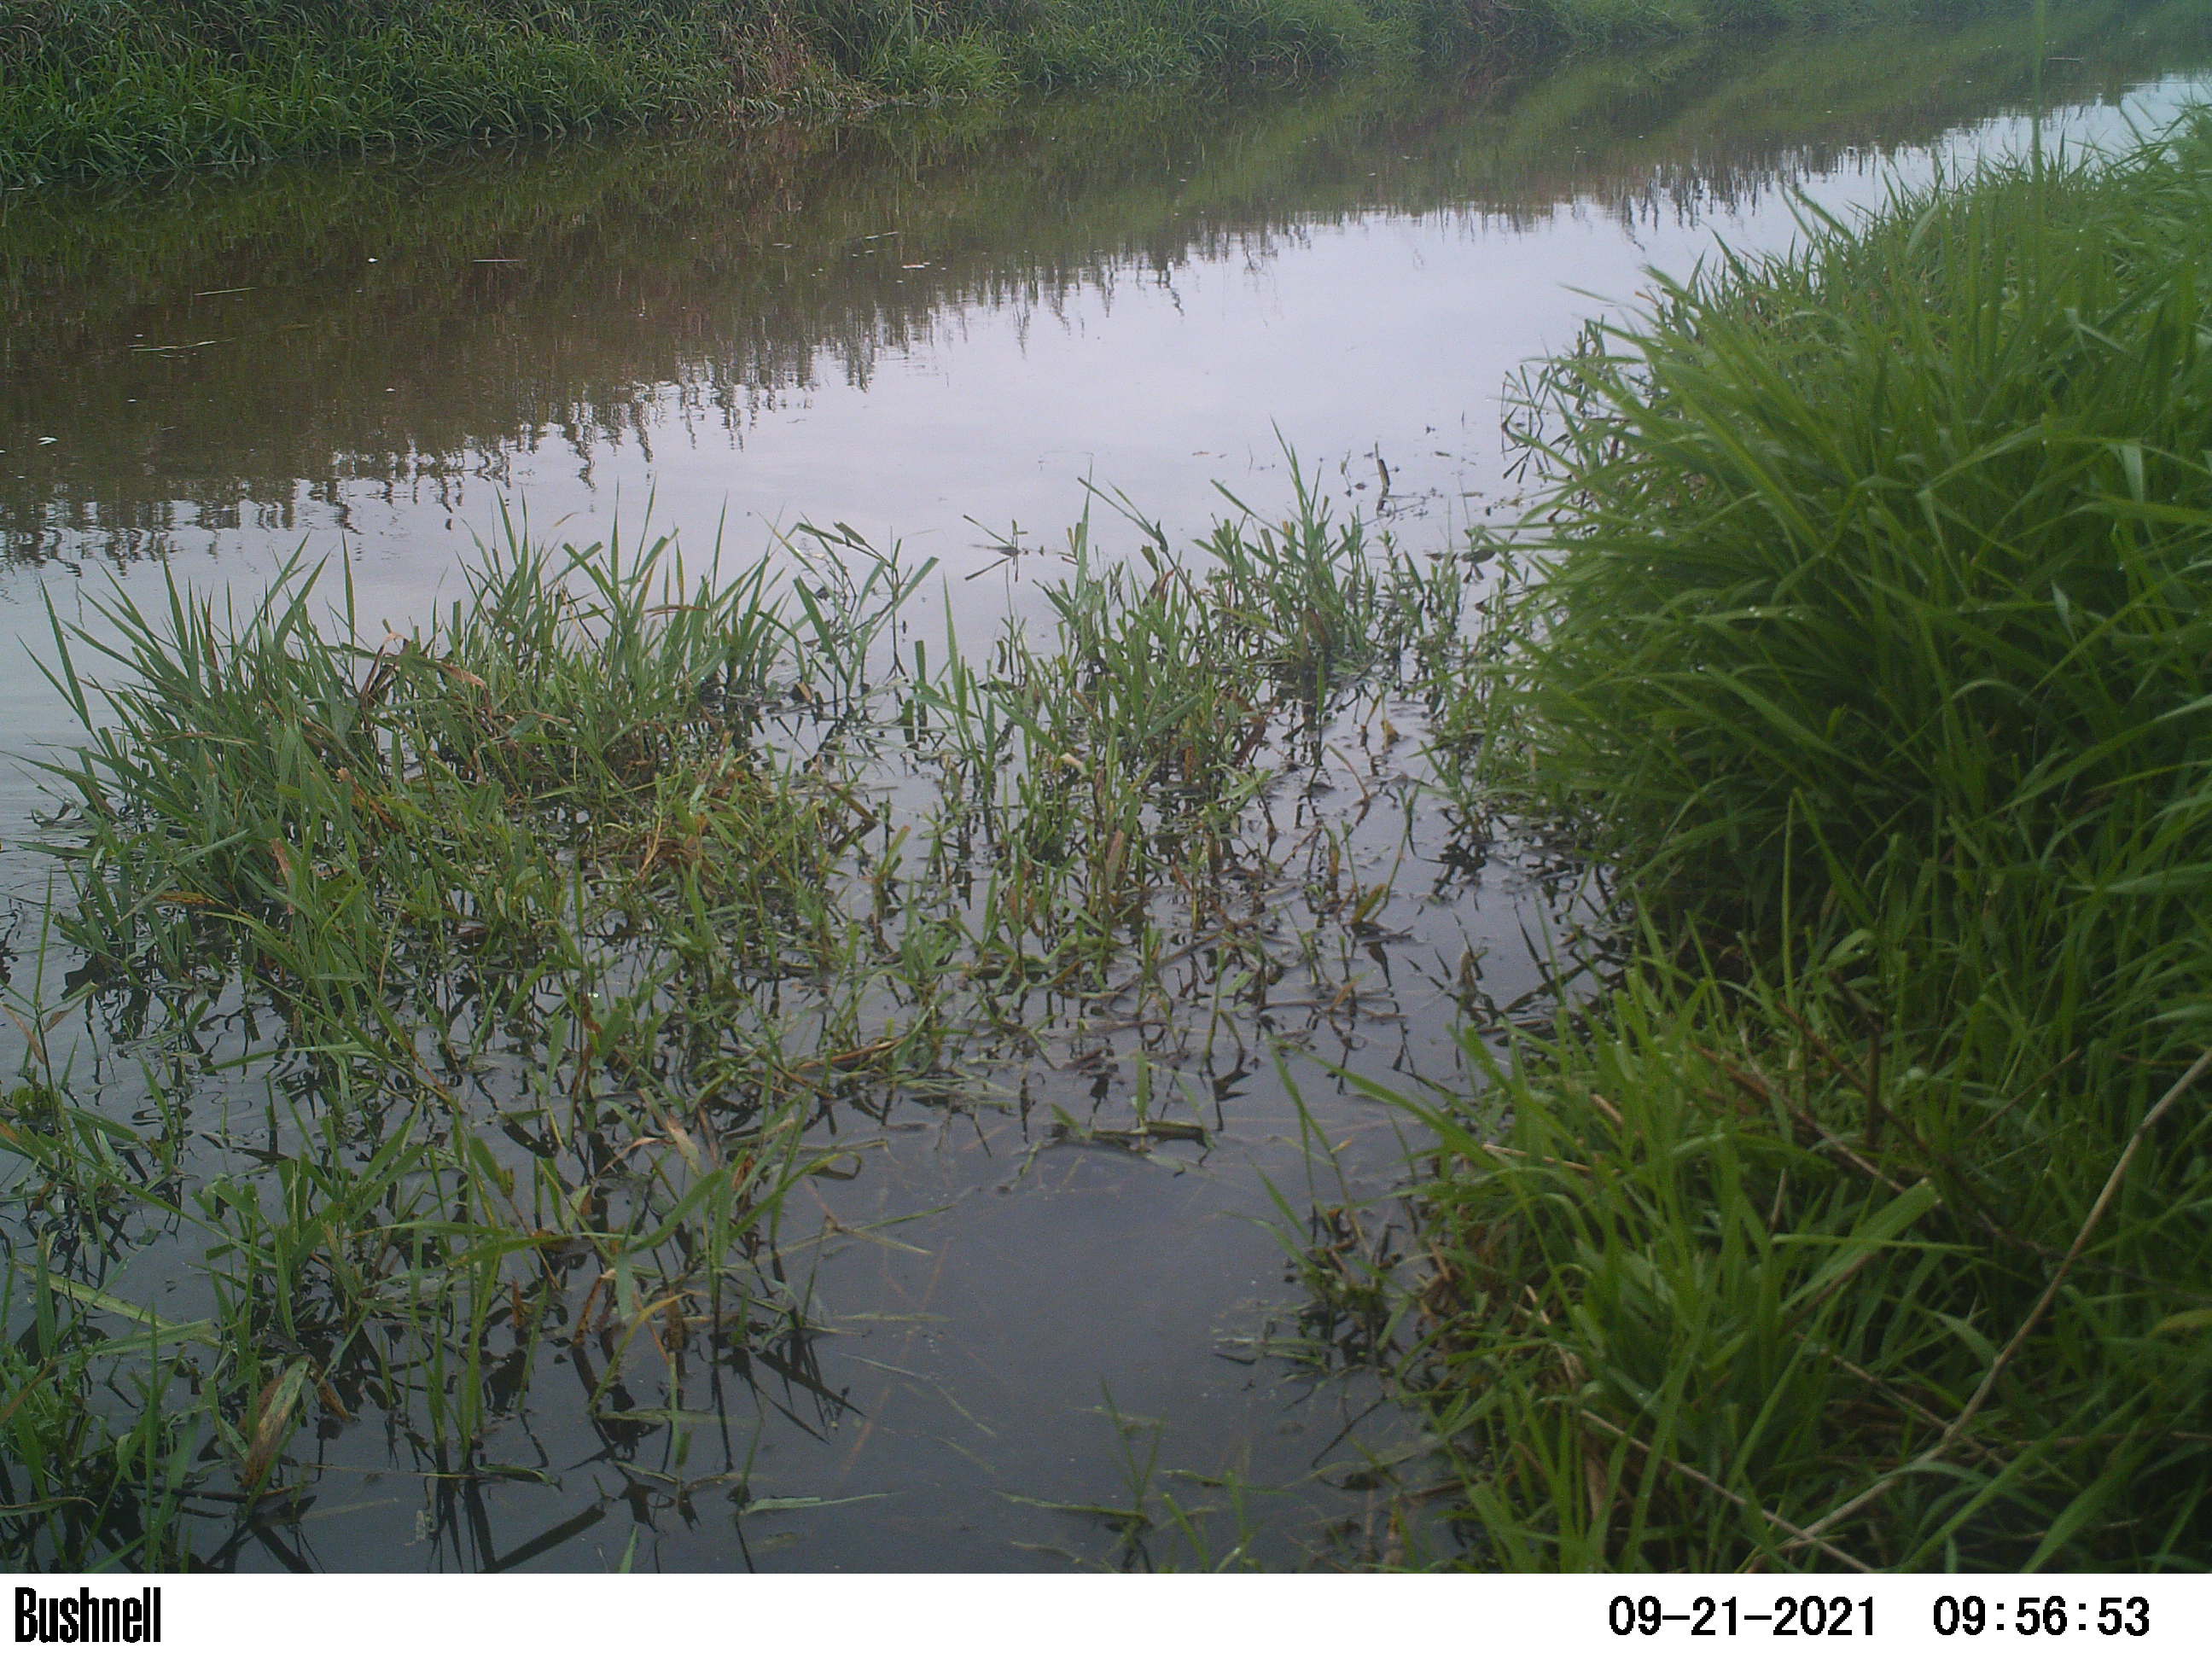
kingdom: Animalia
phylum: Chordata
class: Aves
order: Gruiformes
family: Rallidae
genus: Fulica
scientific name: Fulica atra
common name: Eurasian coot
